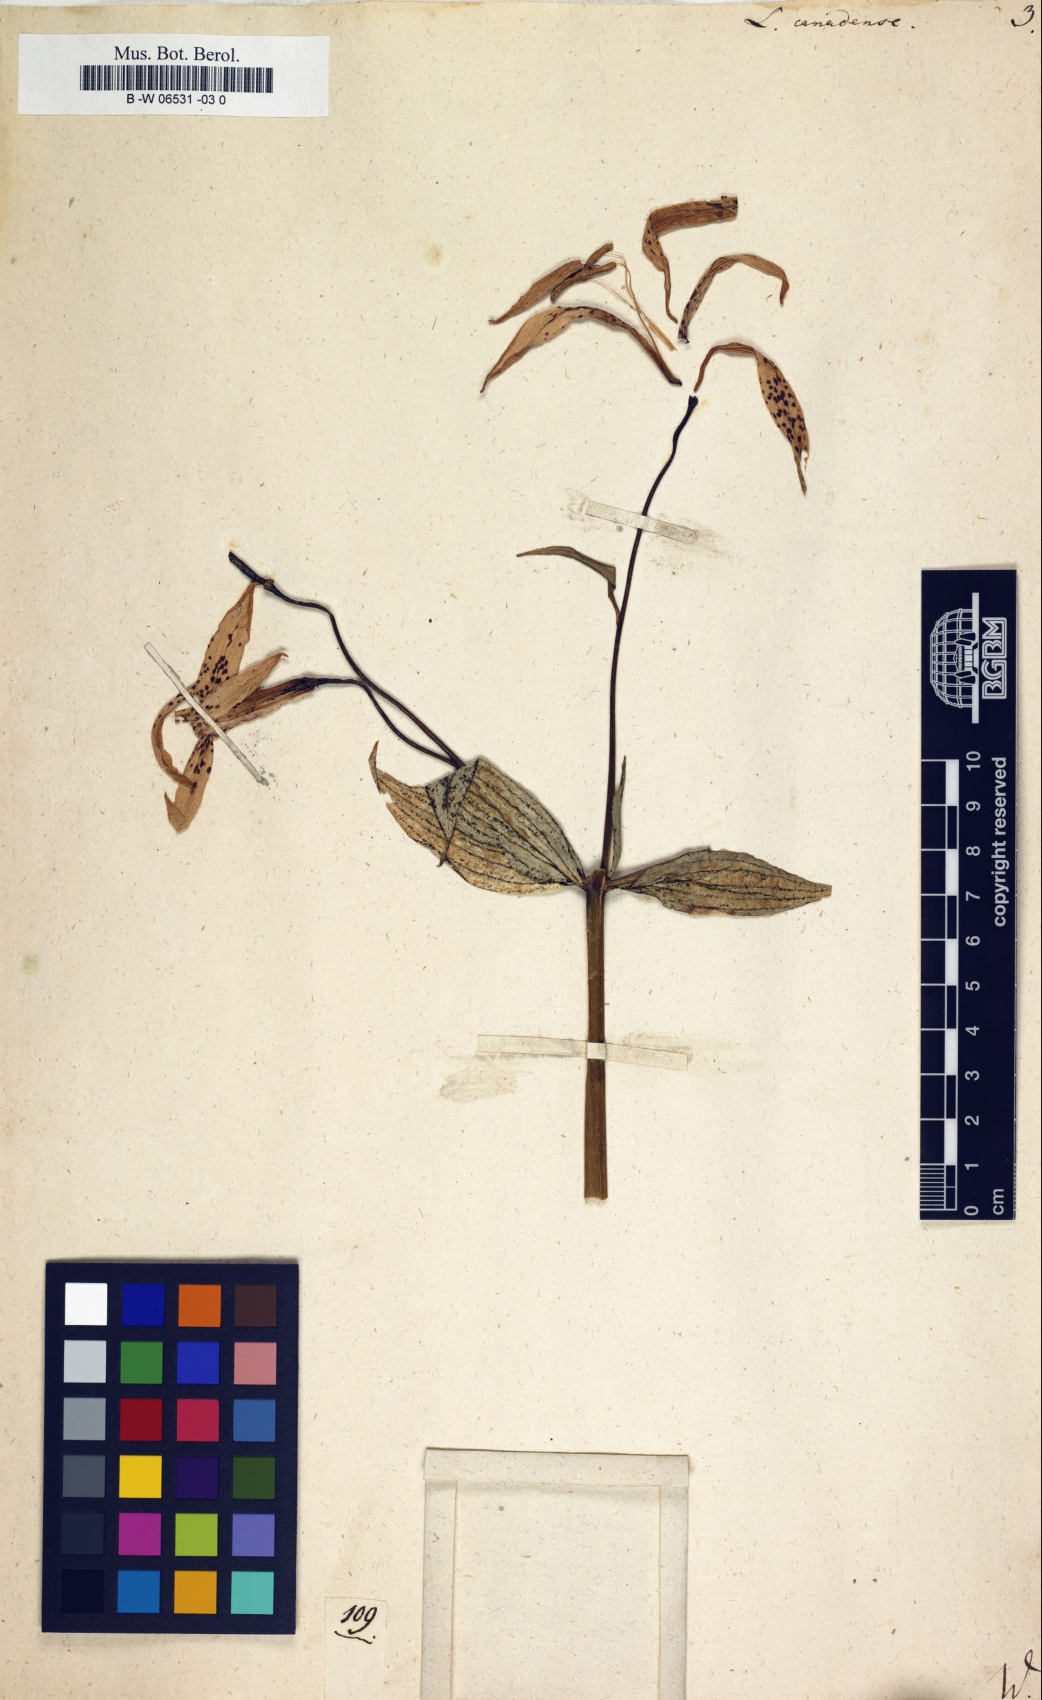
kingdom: Plantae
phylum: Tracheophyta
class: Liliopsida
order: Liliales
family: Liliaceae
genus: Lilium
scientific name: Lilium canadense
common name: Canada lily
